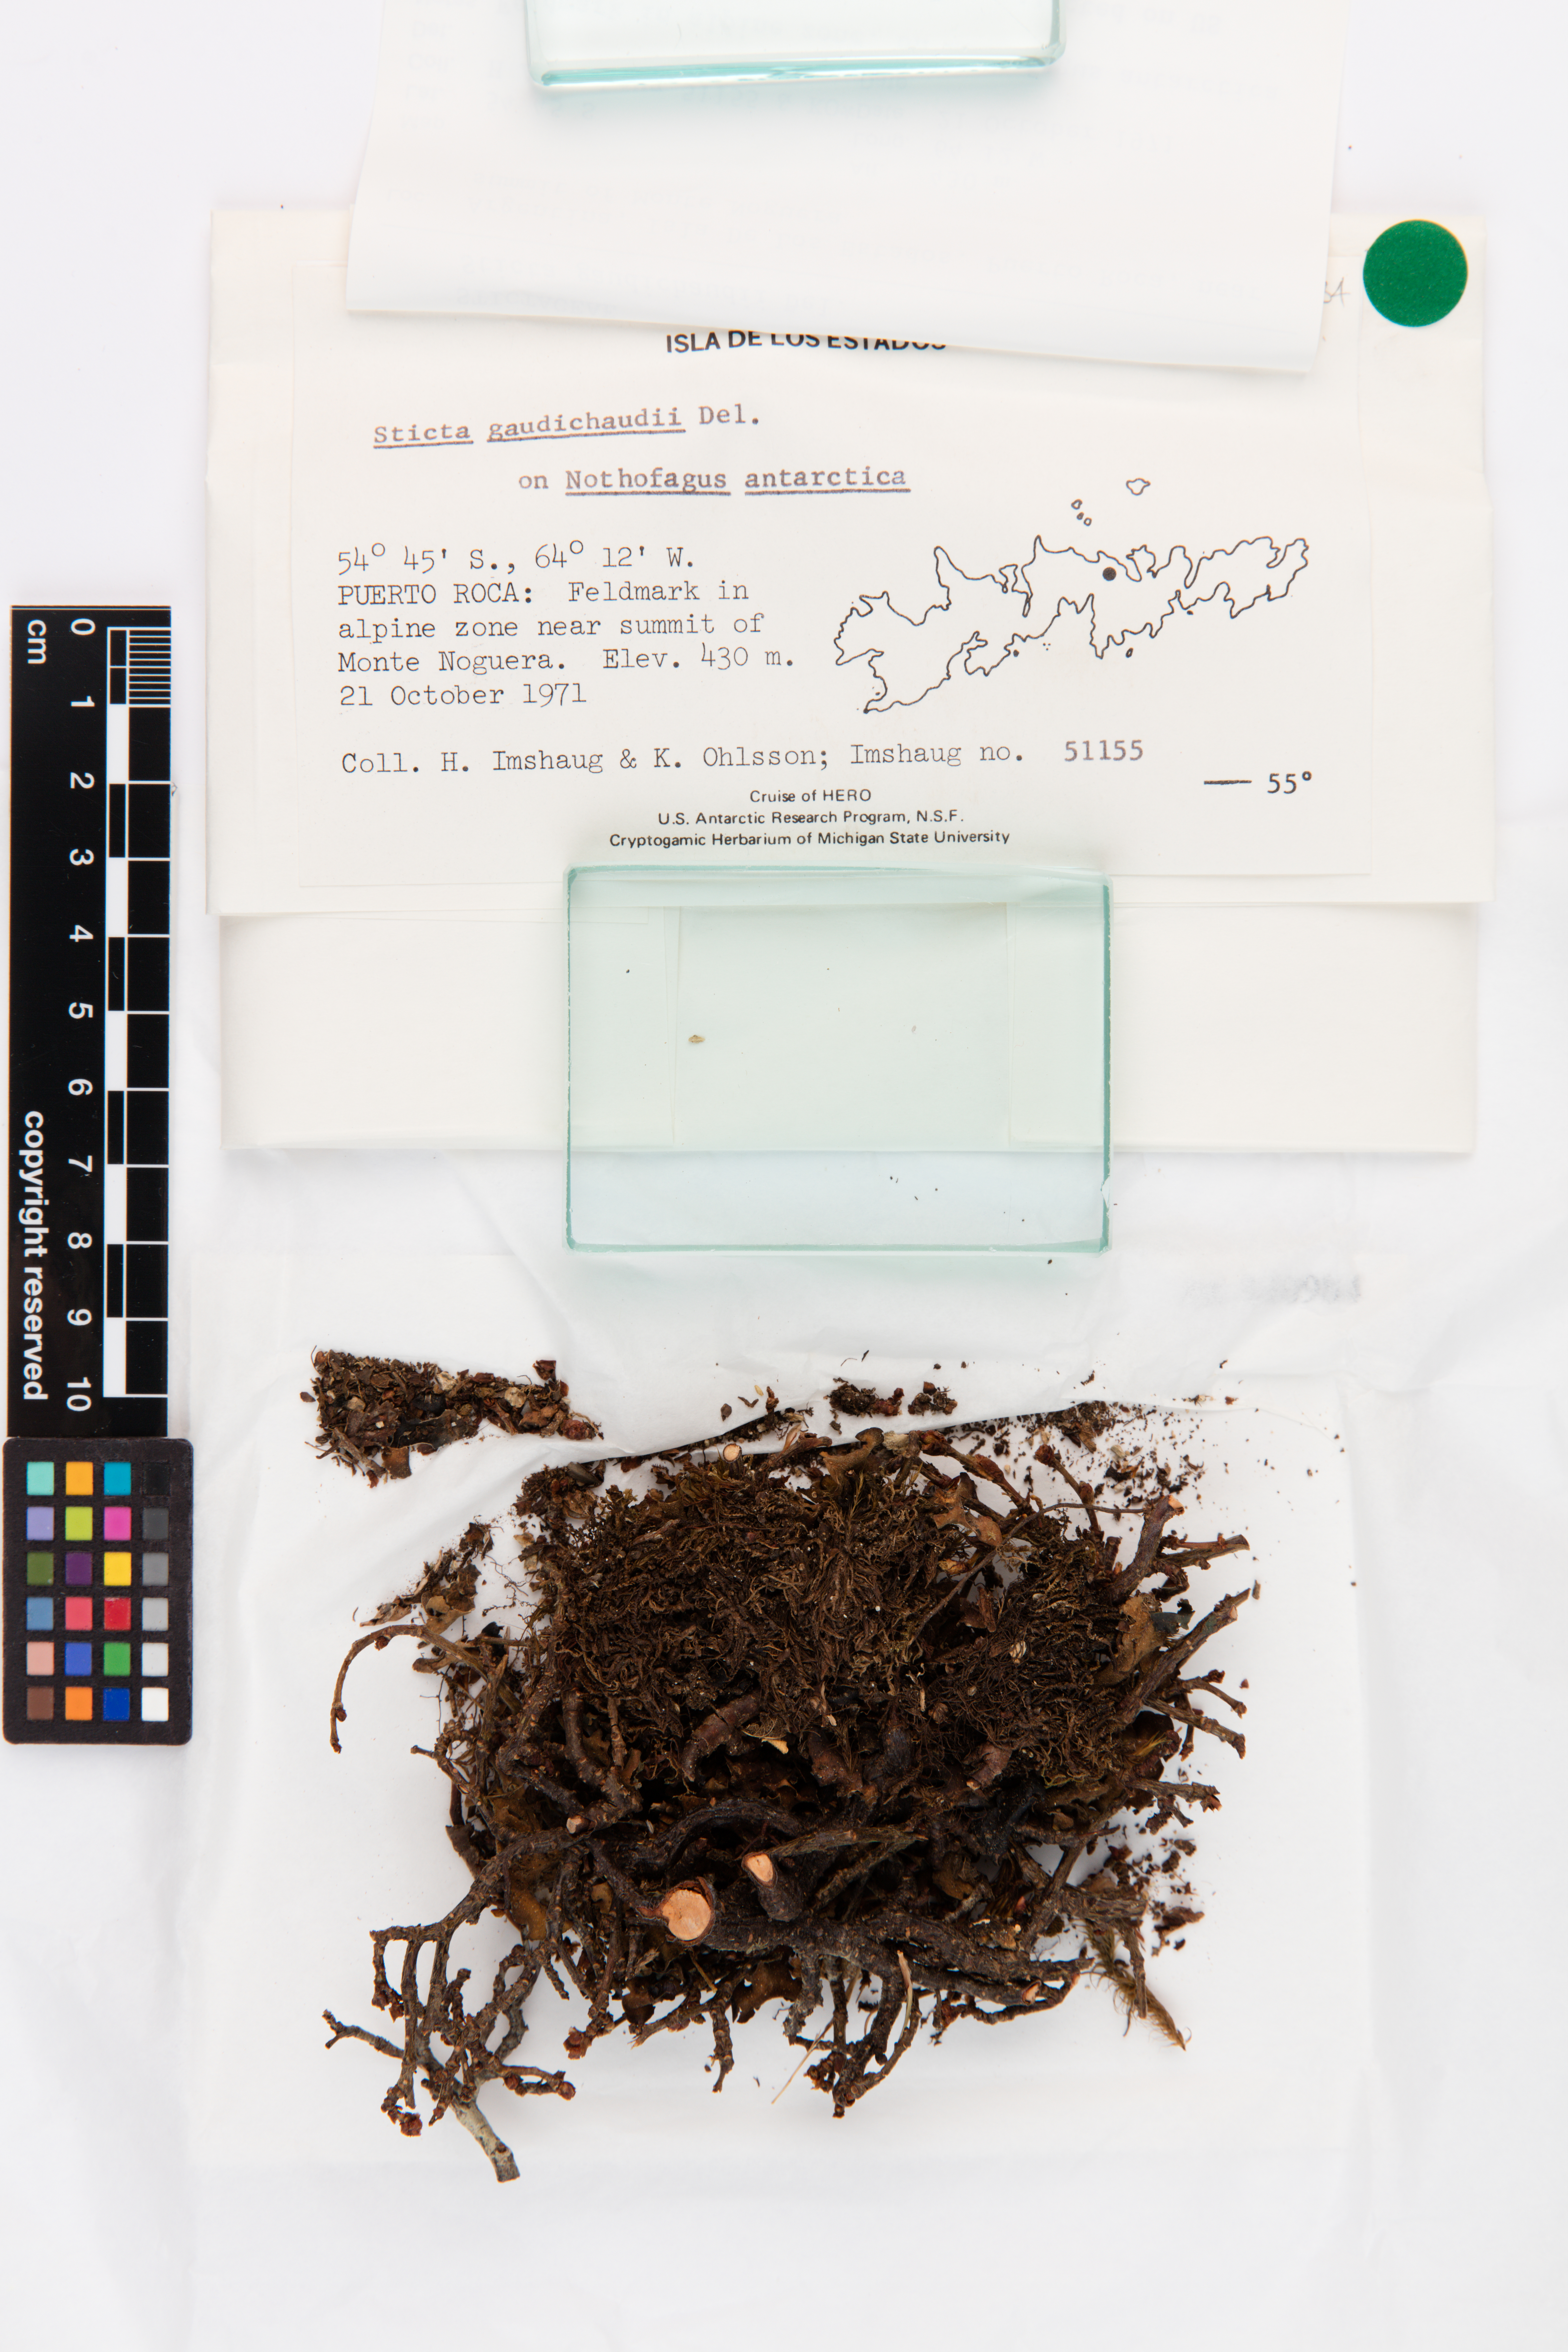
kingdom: Fungi
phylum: Ascomycota
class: Lecanoromycetes
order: Peltigerales
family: Lobariaceae
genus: Sticta
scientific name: Sticta gaudichaudii
